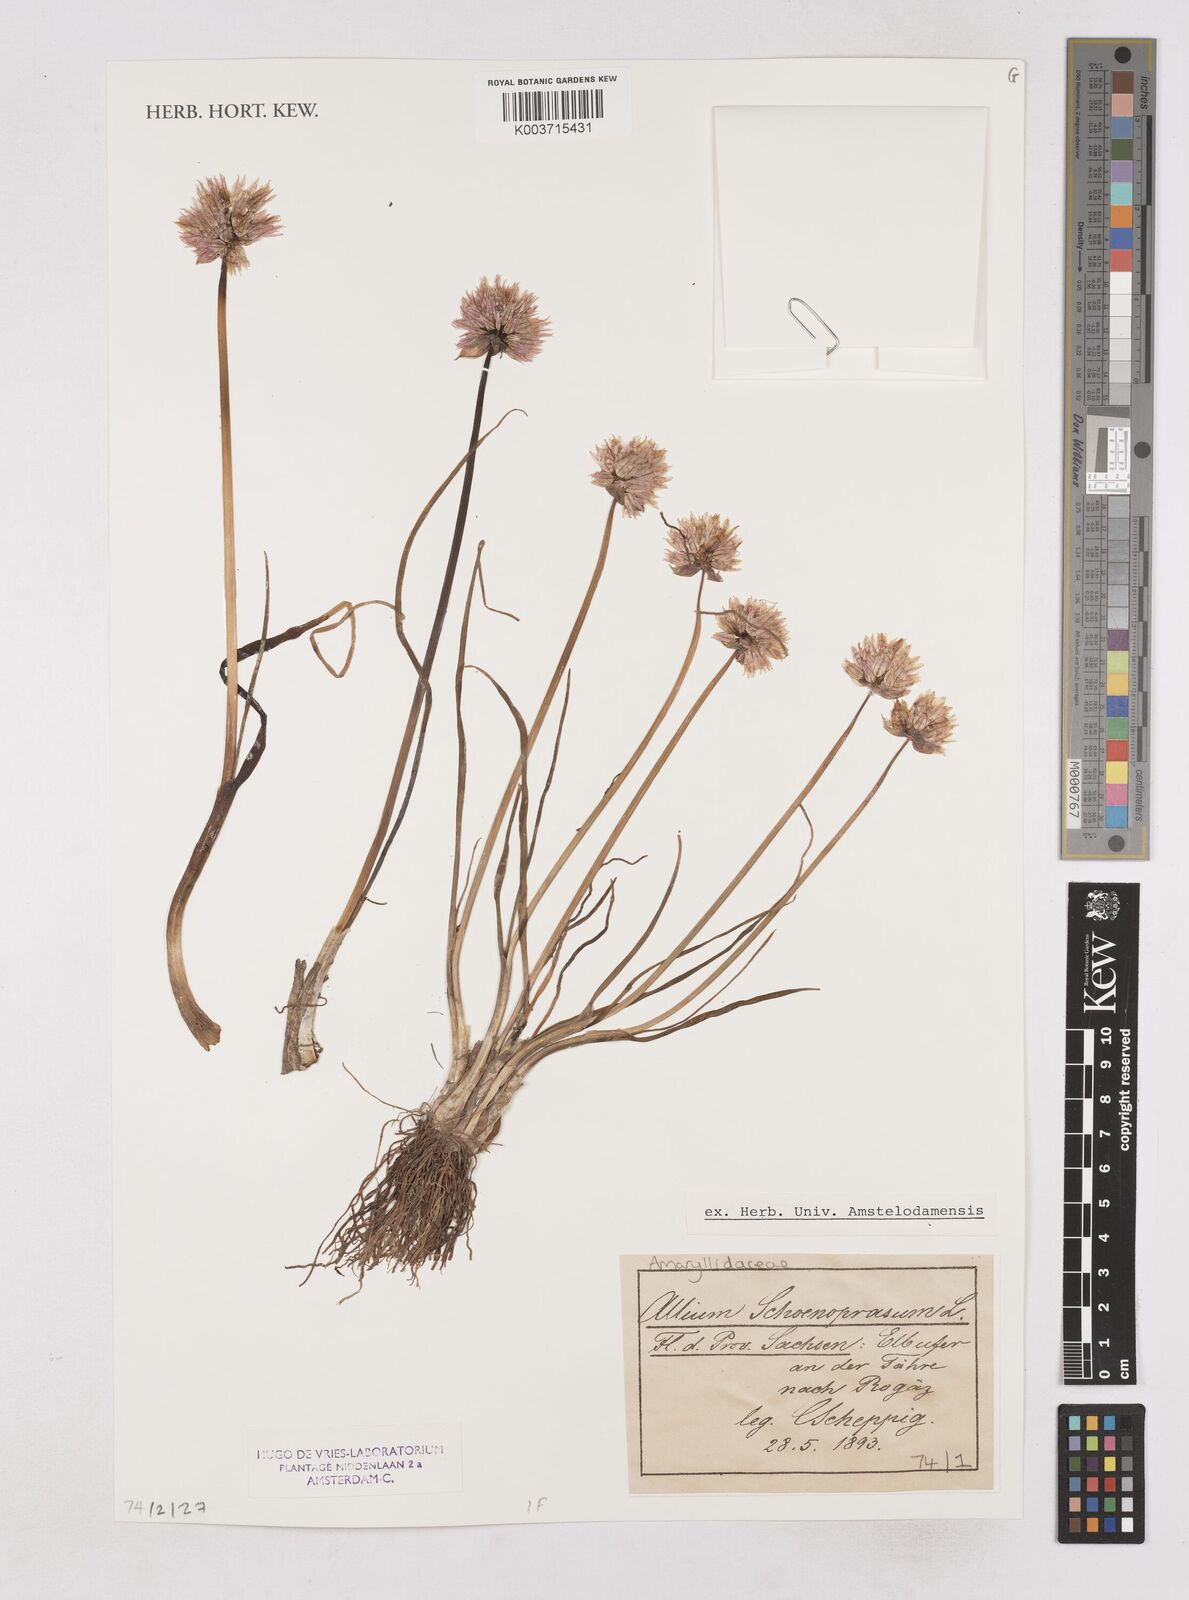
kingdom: Plantae
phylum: Tracheophyta
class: Liliopsida
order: Asparagales
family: Amaryllidaceae
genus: Allium
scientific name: Allium schoenoprasum
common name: Chives
